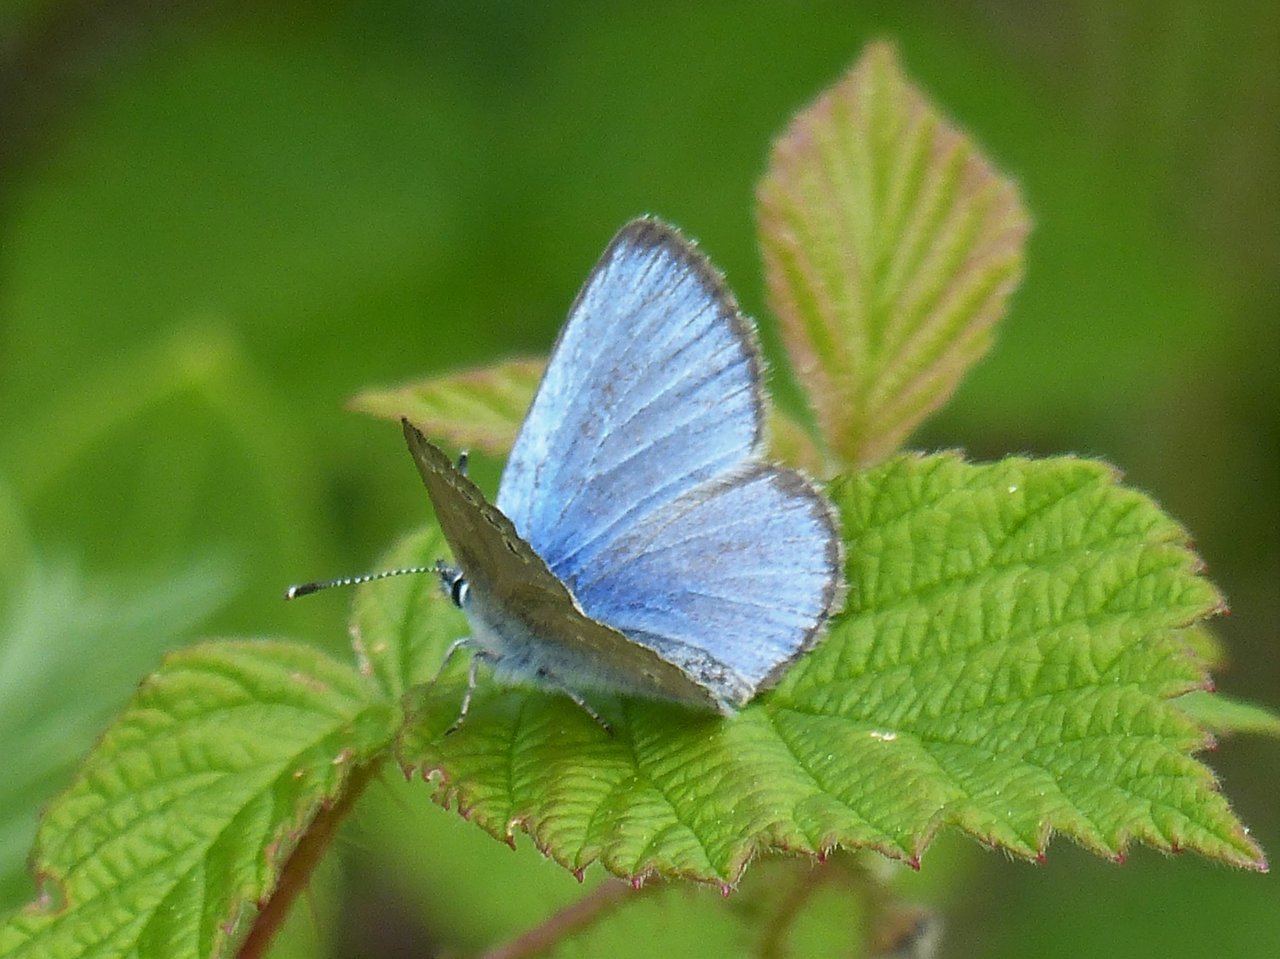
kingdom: Animalia
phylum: Arthropoda
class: Insecta
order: Lepidoptera
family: Lycaenidae
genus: Glaucopsyche
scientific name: Glaucopsyche lygdamus
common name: Silvery Blue
